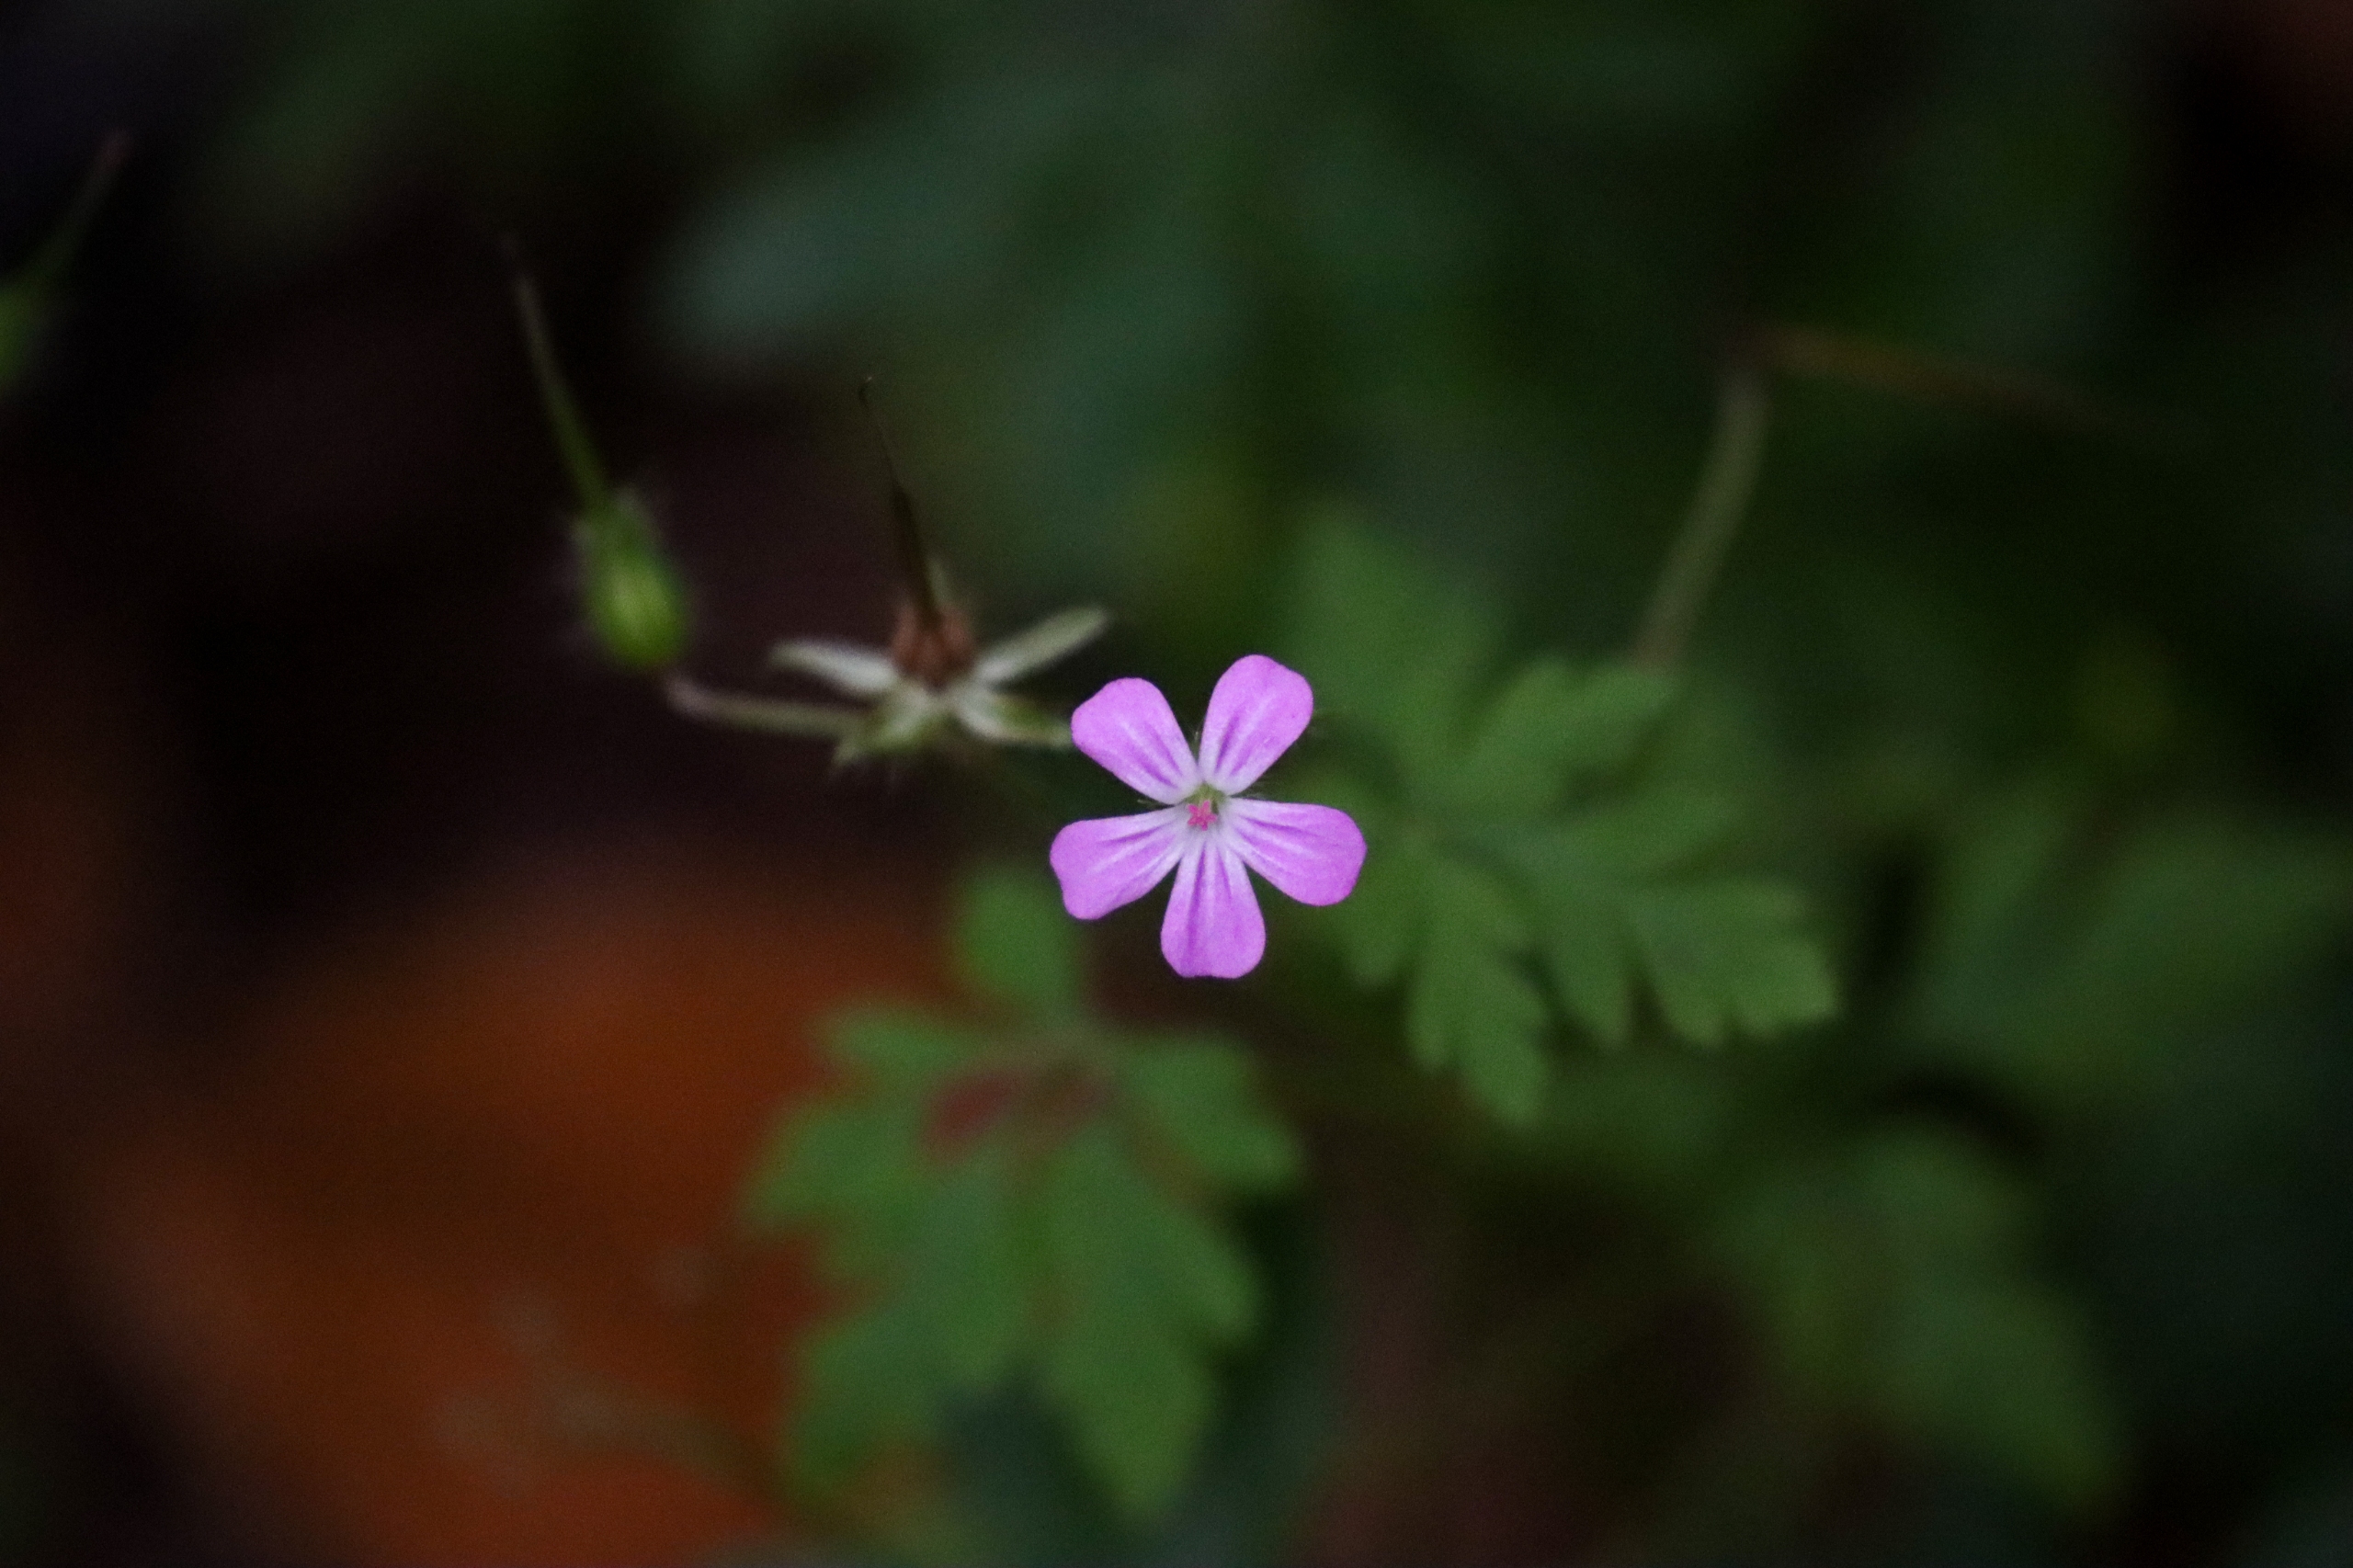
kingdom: Plantae
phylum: Tracheophyta
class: Magnoliopsida
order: Geraniales
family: Geraniaceae
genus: Geranium
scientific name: Geranium robertianum
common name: Stinkende storkenæb
